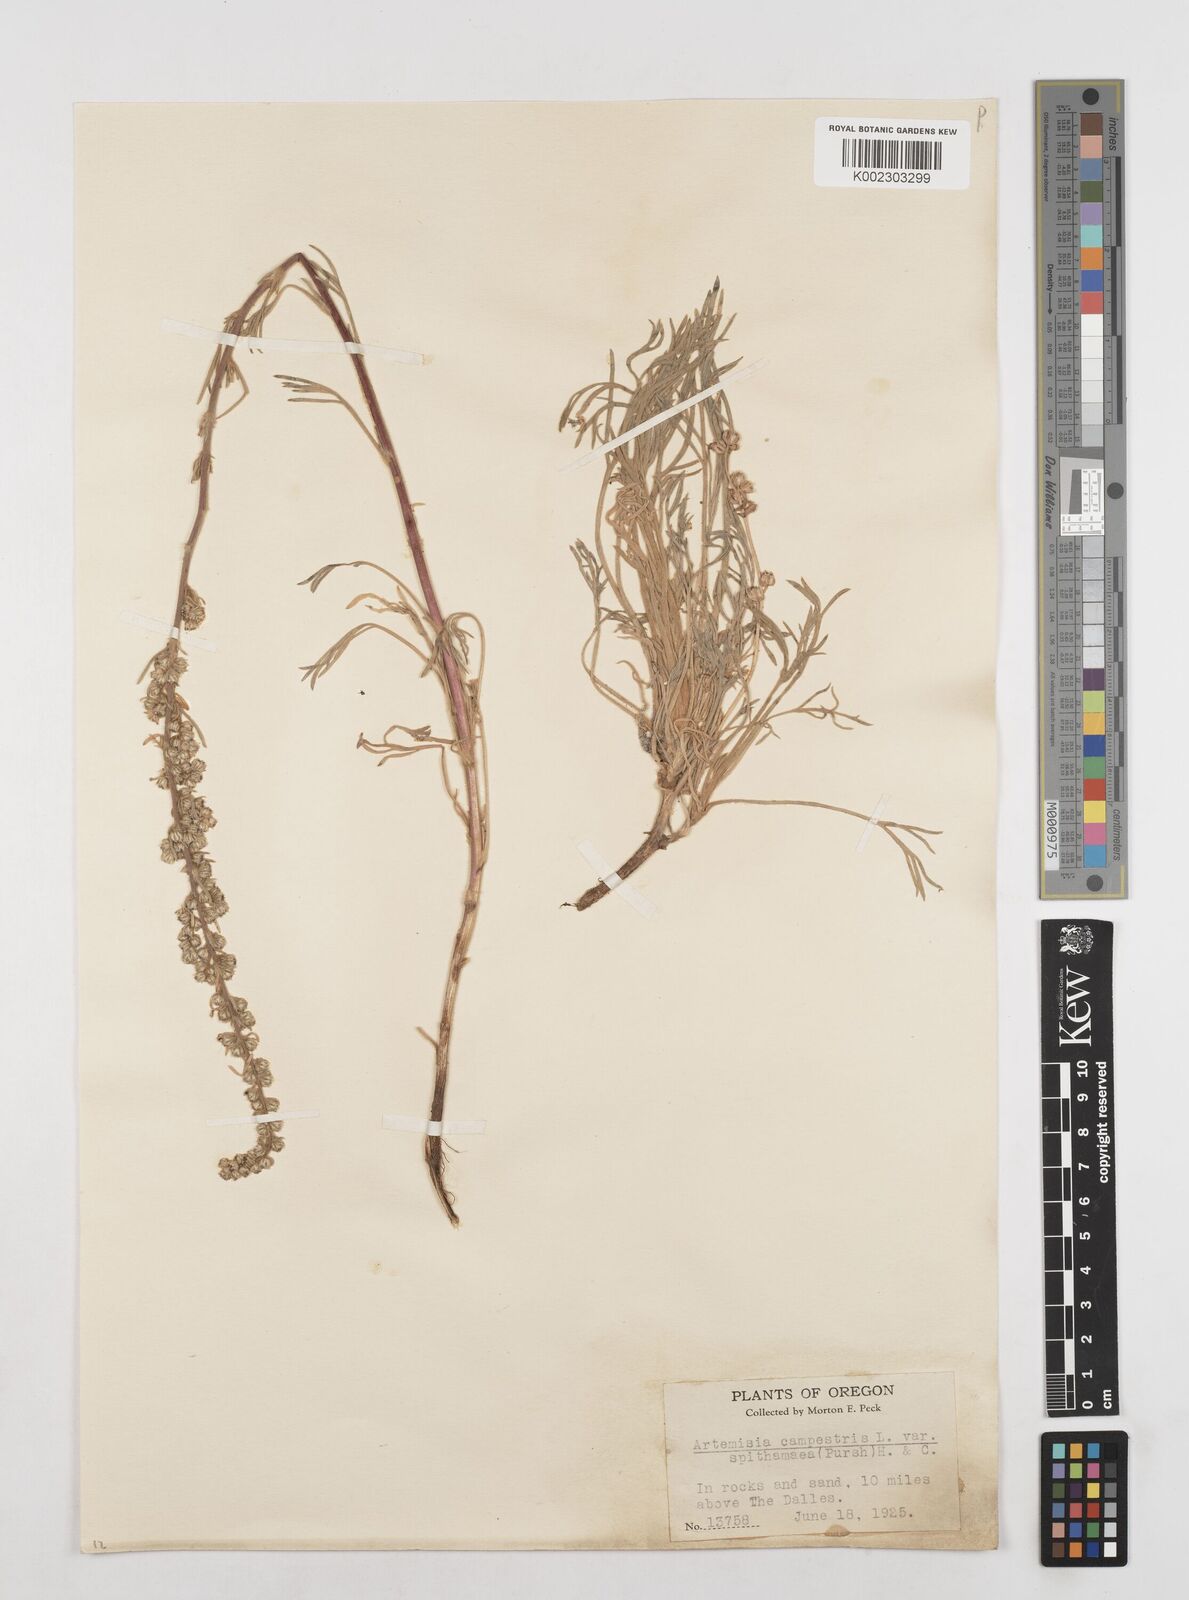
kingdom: Plantae
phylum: Tracheophyta
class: Magnoliopsida
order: Asterales
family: Asteraceae
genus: Artemisia
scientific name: Artemisia borealis
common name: Boreal sage
